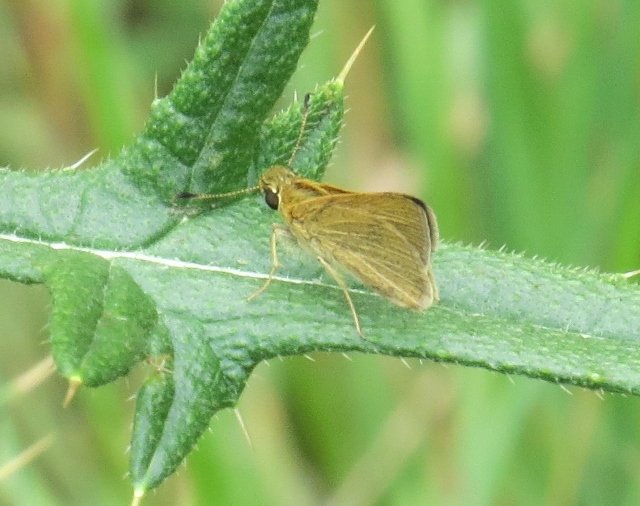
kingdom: Animalia
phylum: Arthropoda
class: Insecta
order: Lepidoptera
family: Hesperiidae
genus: Nastra
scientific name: Nastra lherminier
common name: Swarthy Skipper
